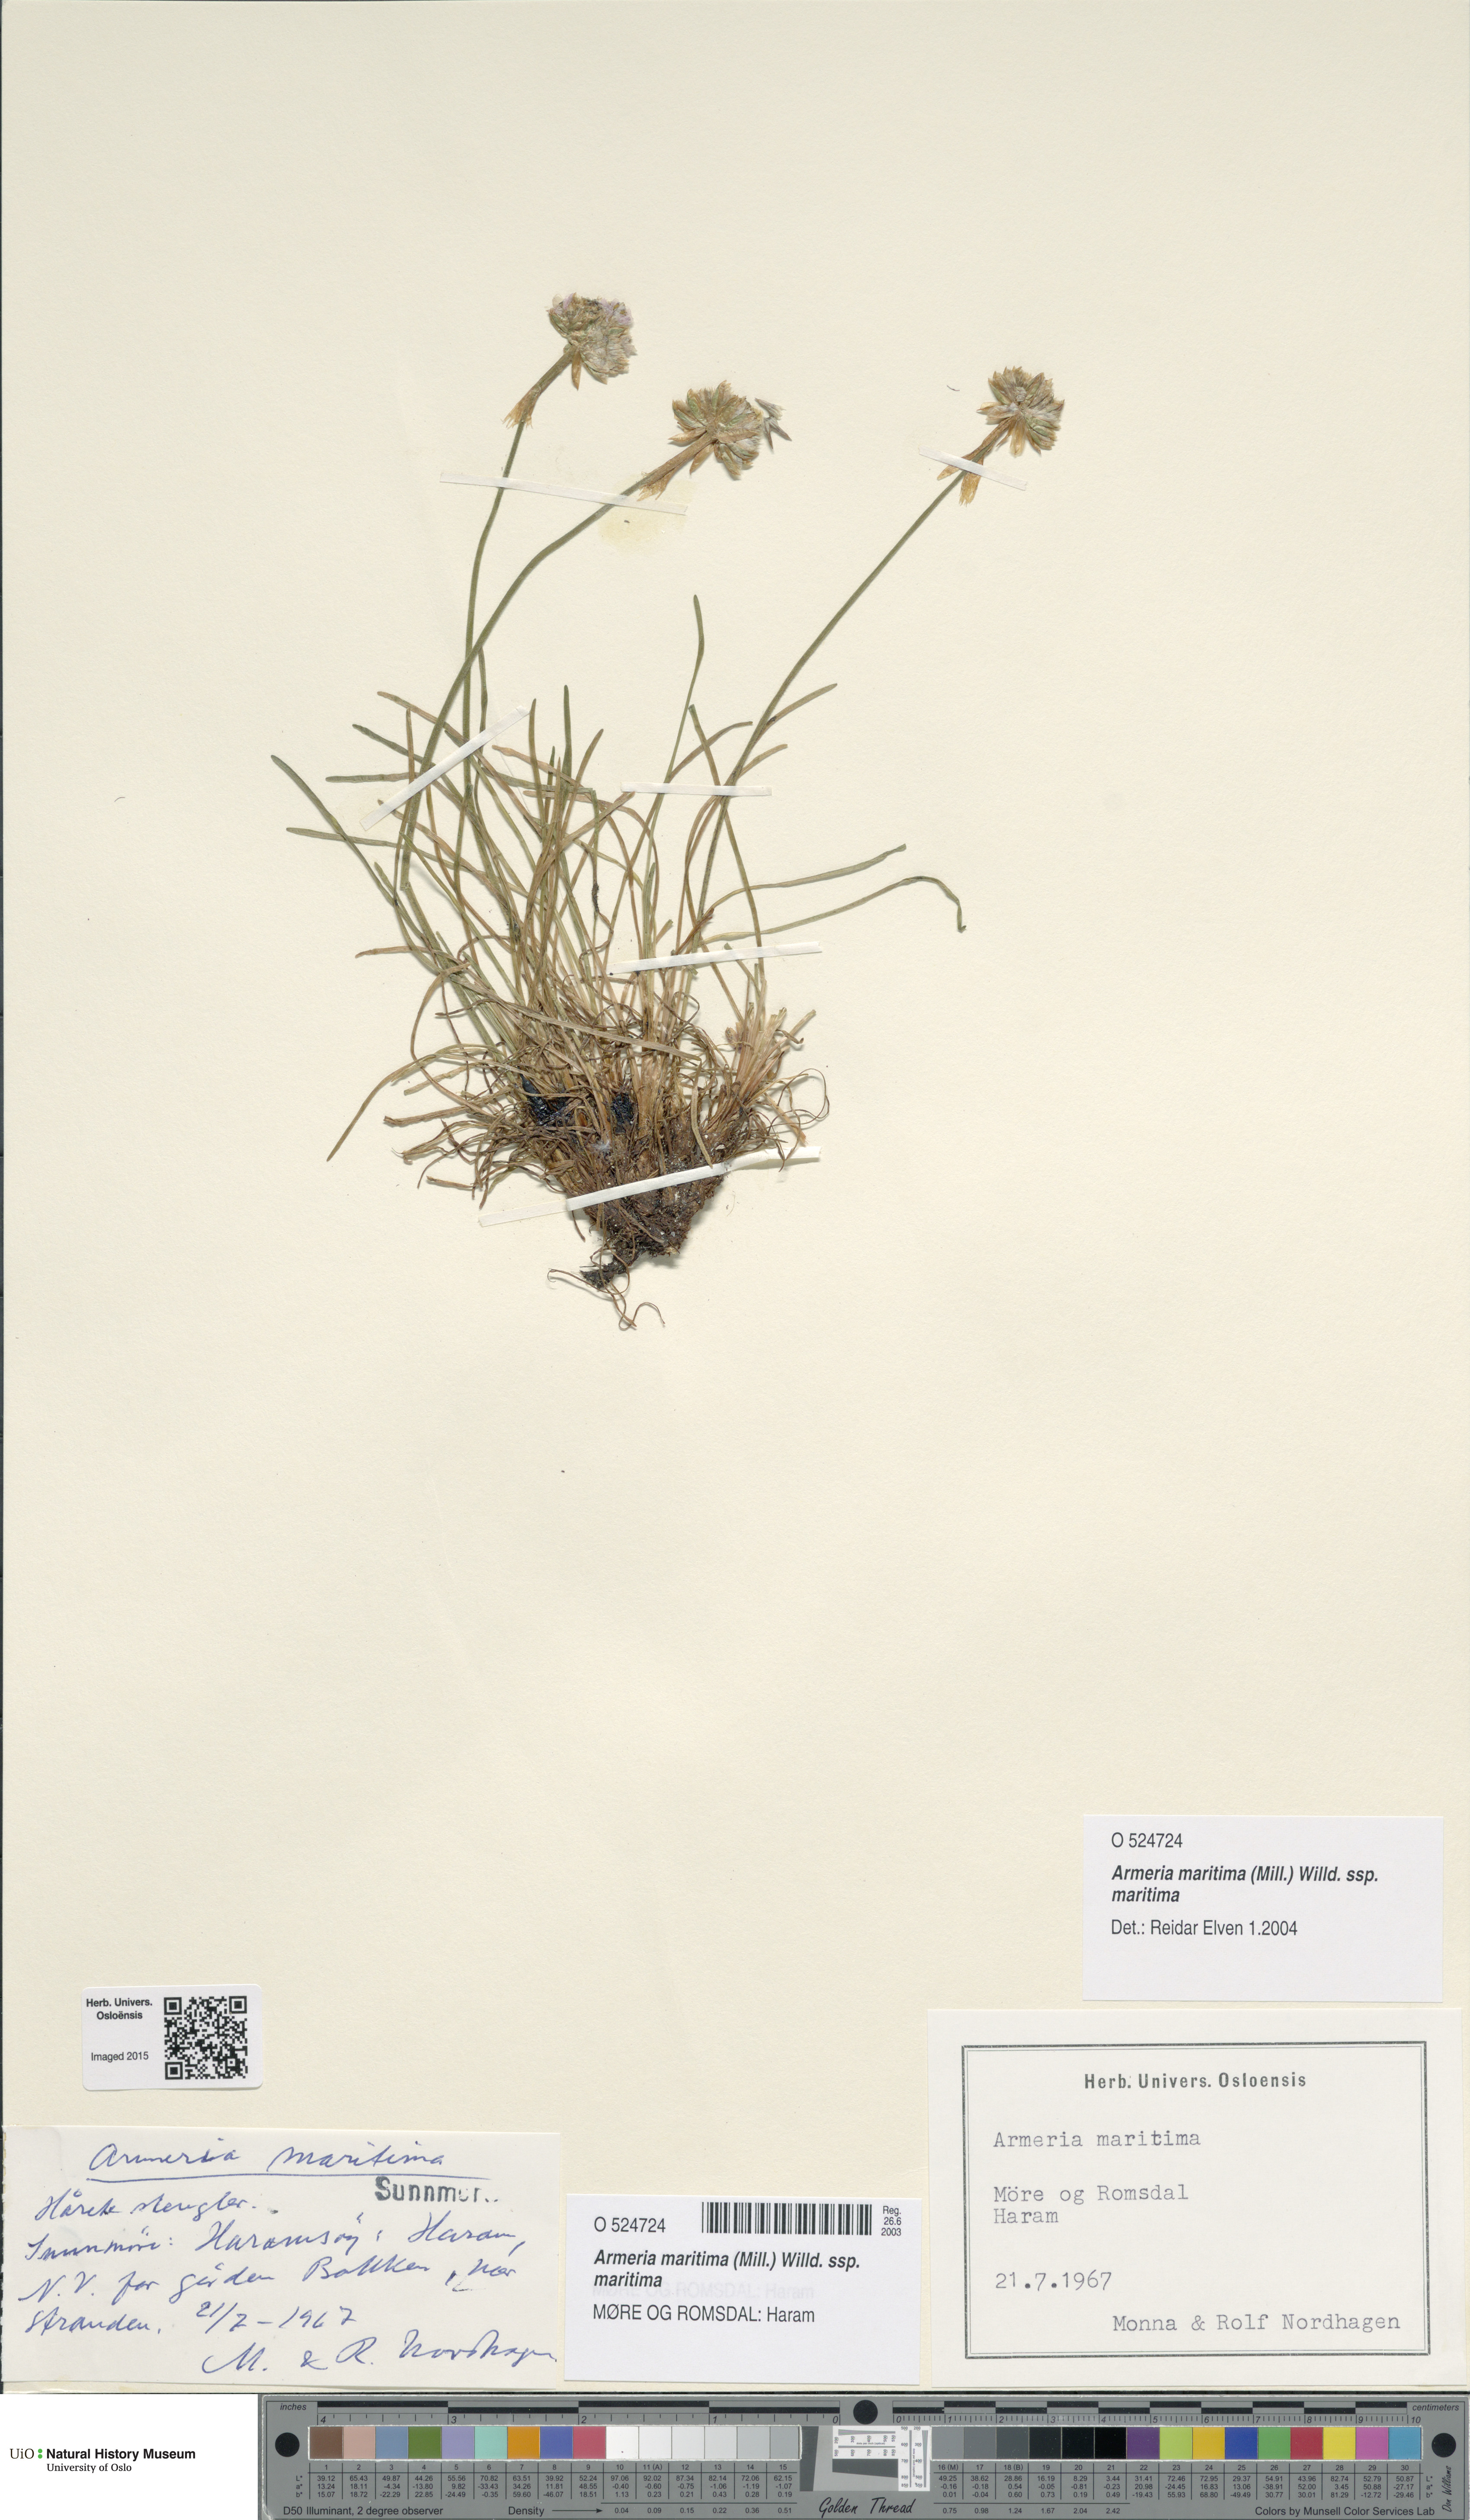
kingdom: Plantae
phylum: Tracheophyta
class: Magnoliopsida
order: Caryophyllales
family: Plumbaginaceae
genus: Armeria
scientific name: Armeria maritima
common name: Thrift
